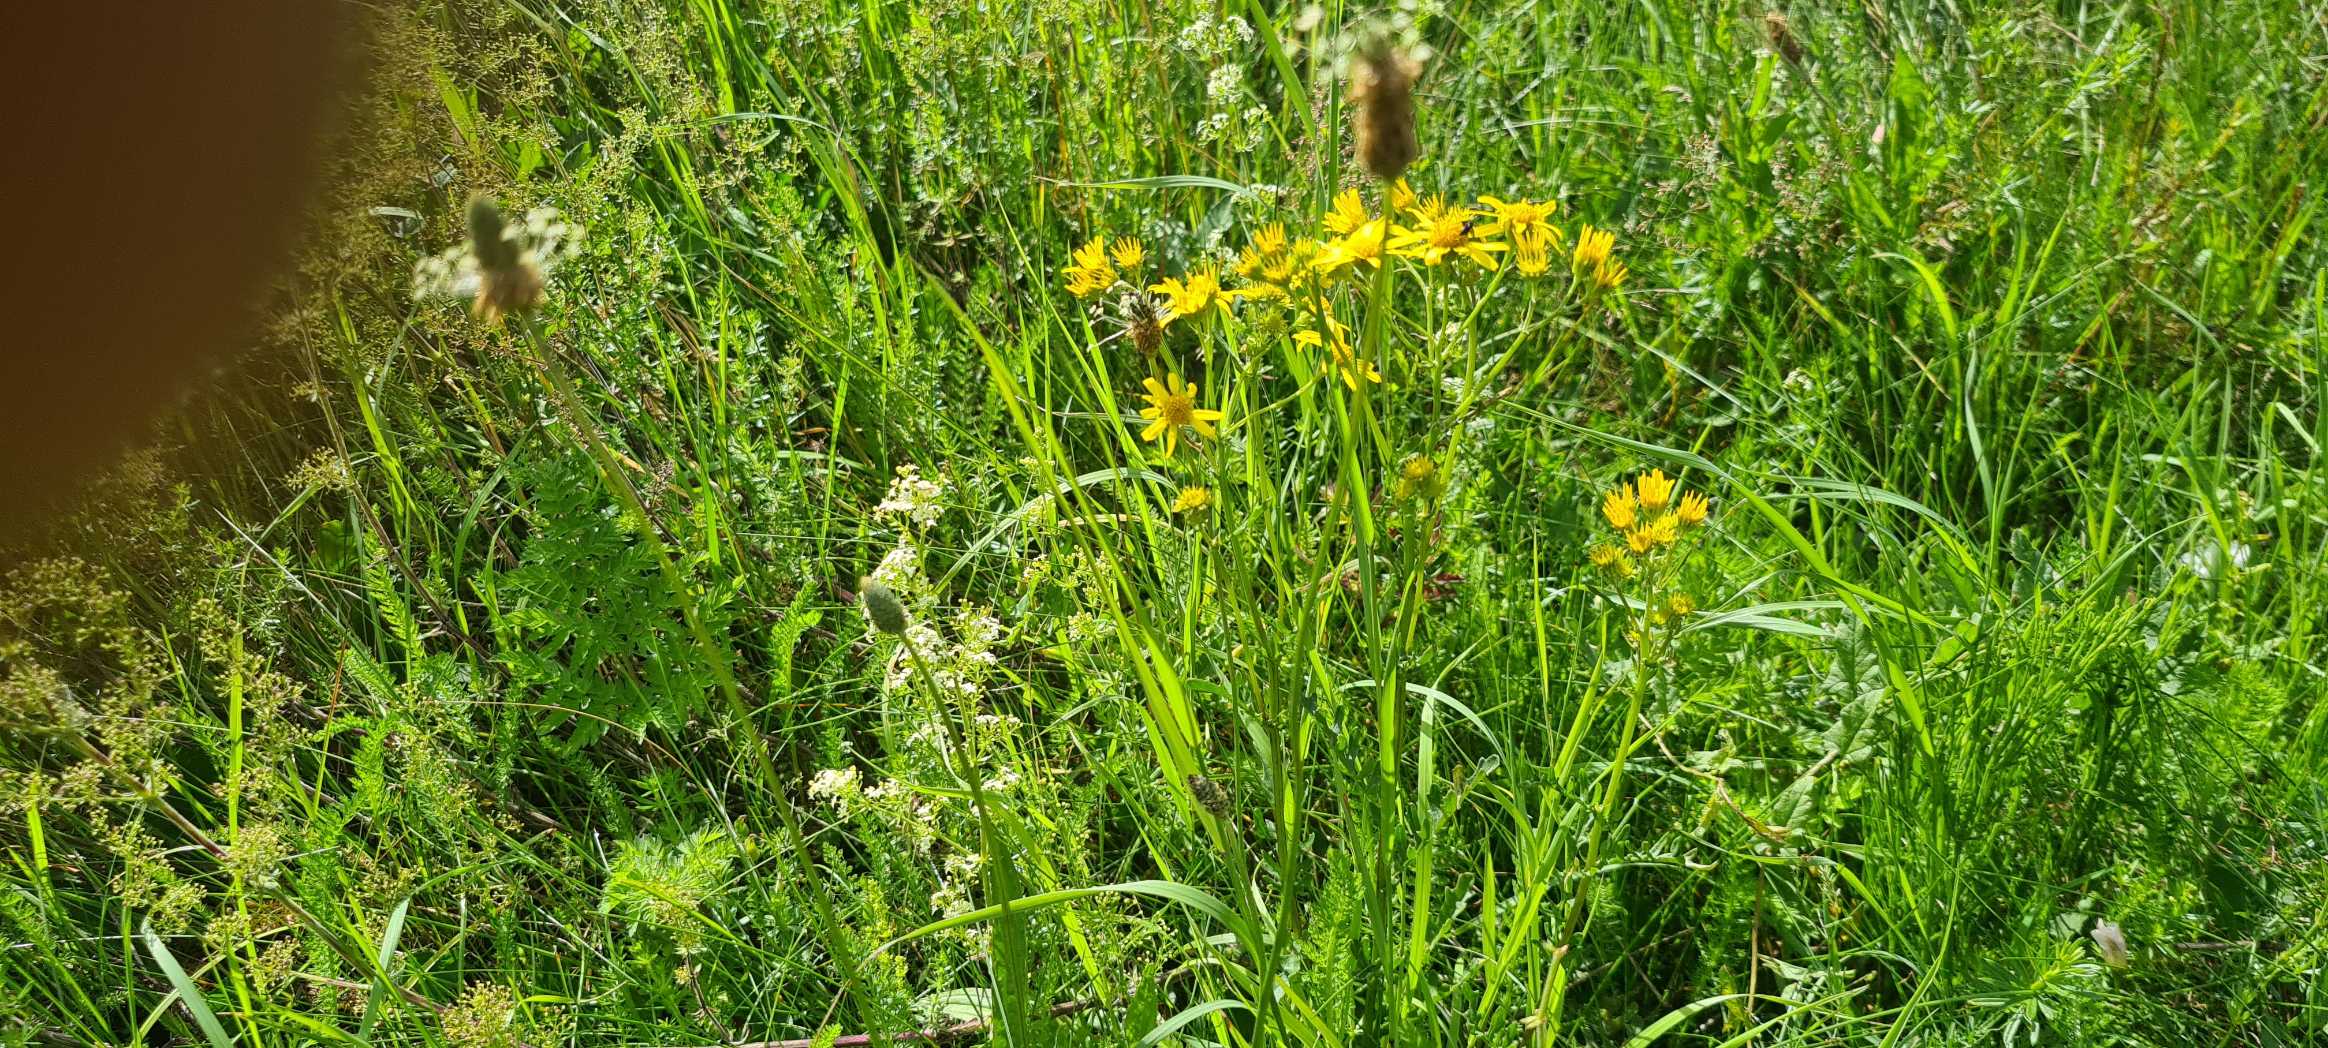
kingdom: Plantae
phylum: Tracheophyta
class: Magnoliopsida
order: Asterales
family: Asteraceae
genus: Jacobaea
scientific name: Jacobaea aquatica
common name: Vand-brandbæger
